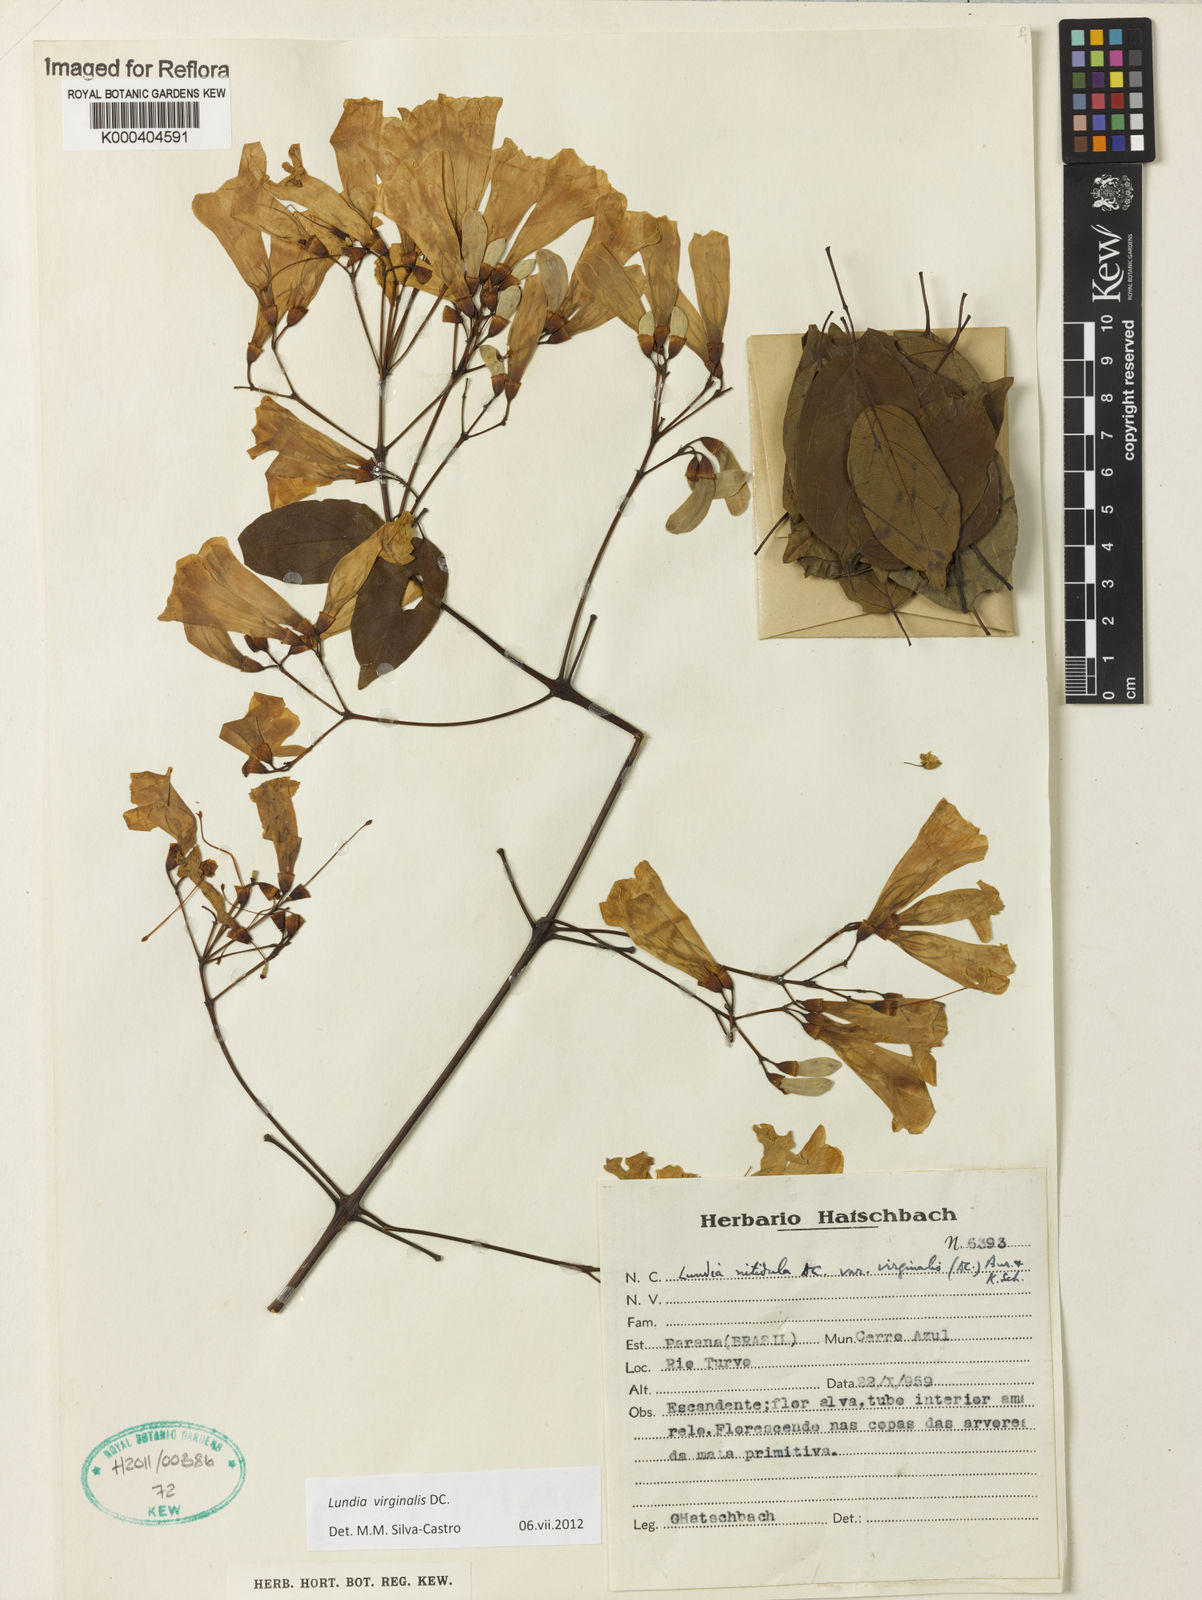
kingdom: Plantae
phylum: Tracheophyta
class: Magnoliopsida
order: Lamiales
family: Bignoniaceae
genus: Lundia
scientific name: Lundia virginalis
